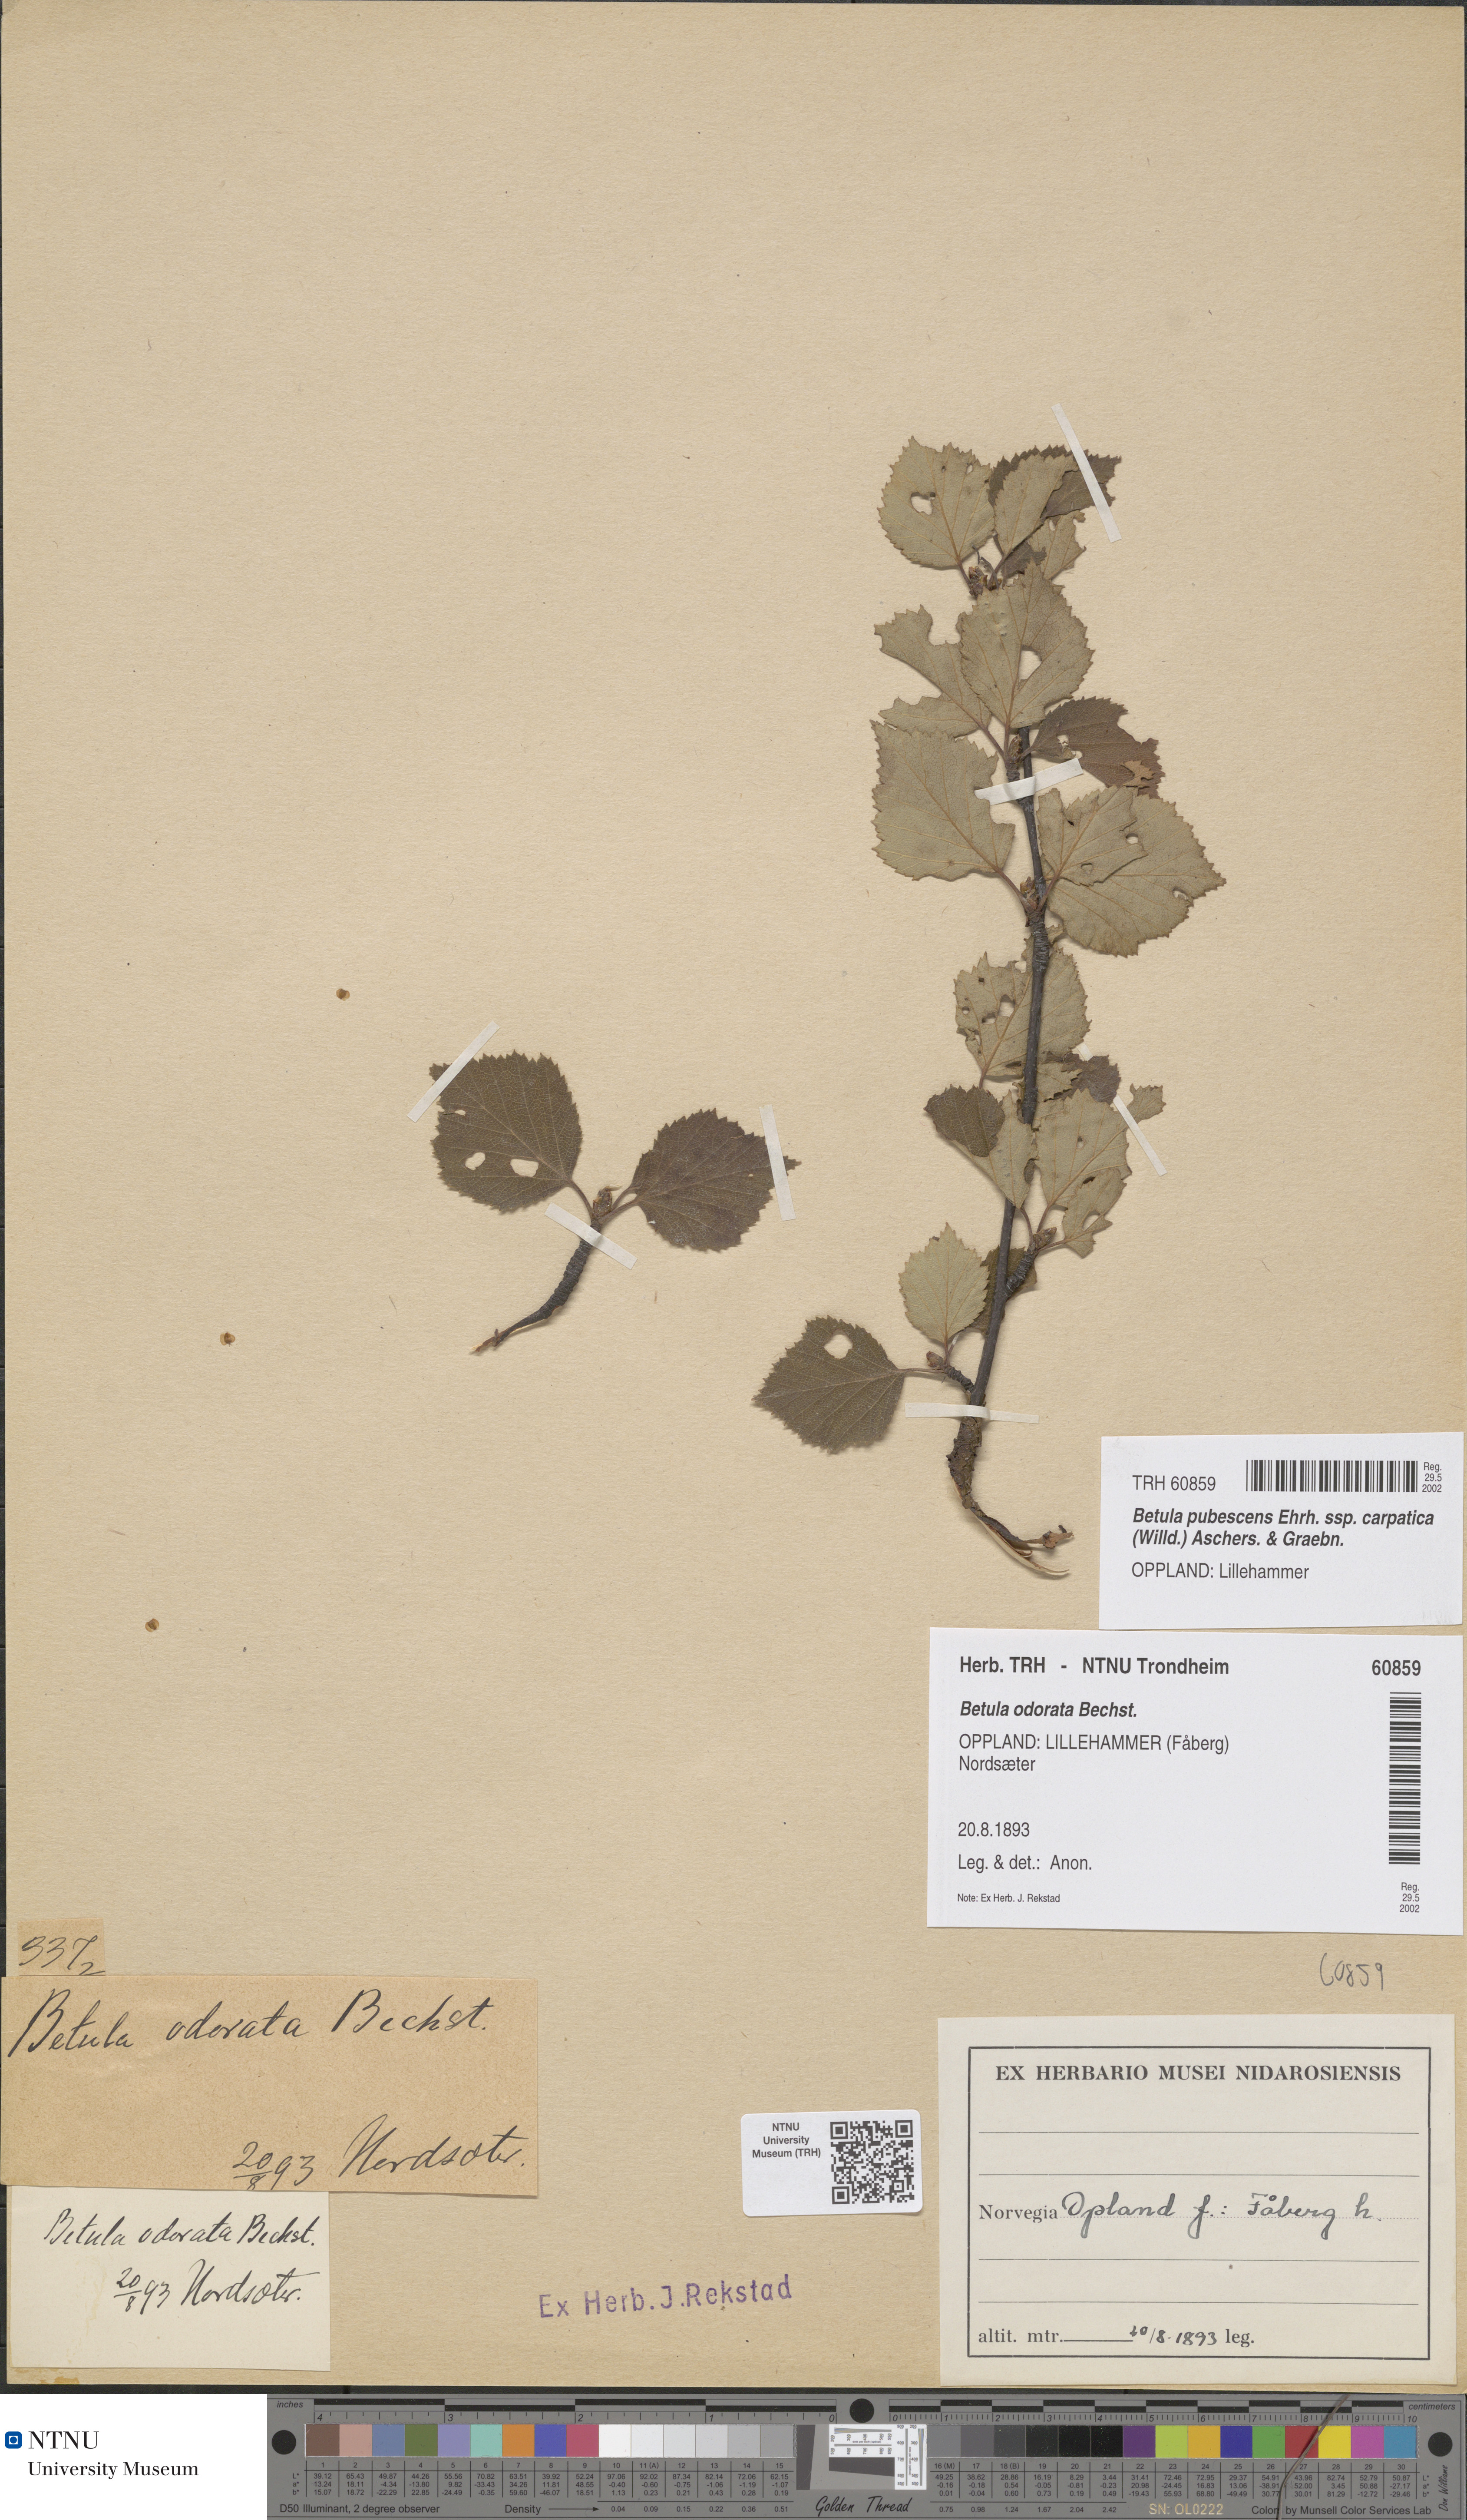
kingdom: Plantae
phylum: Tracheophyta
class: Magnoliopsida
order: Fagales
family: Betulaceae
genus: Betula
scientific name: Betula pubescens
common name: Downy birch
